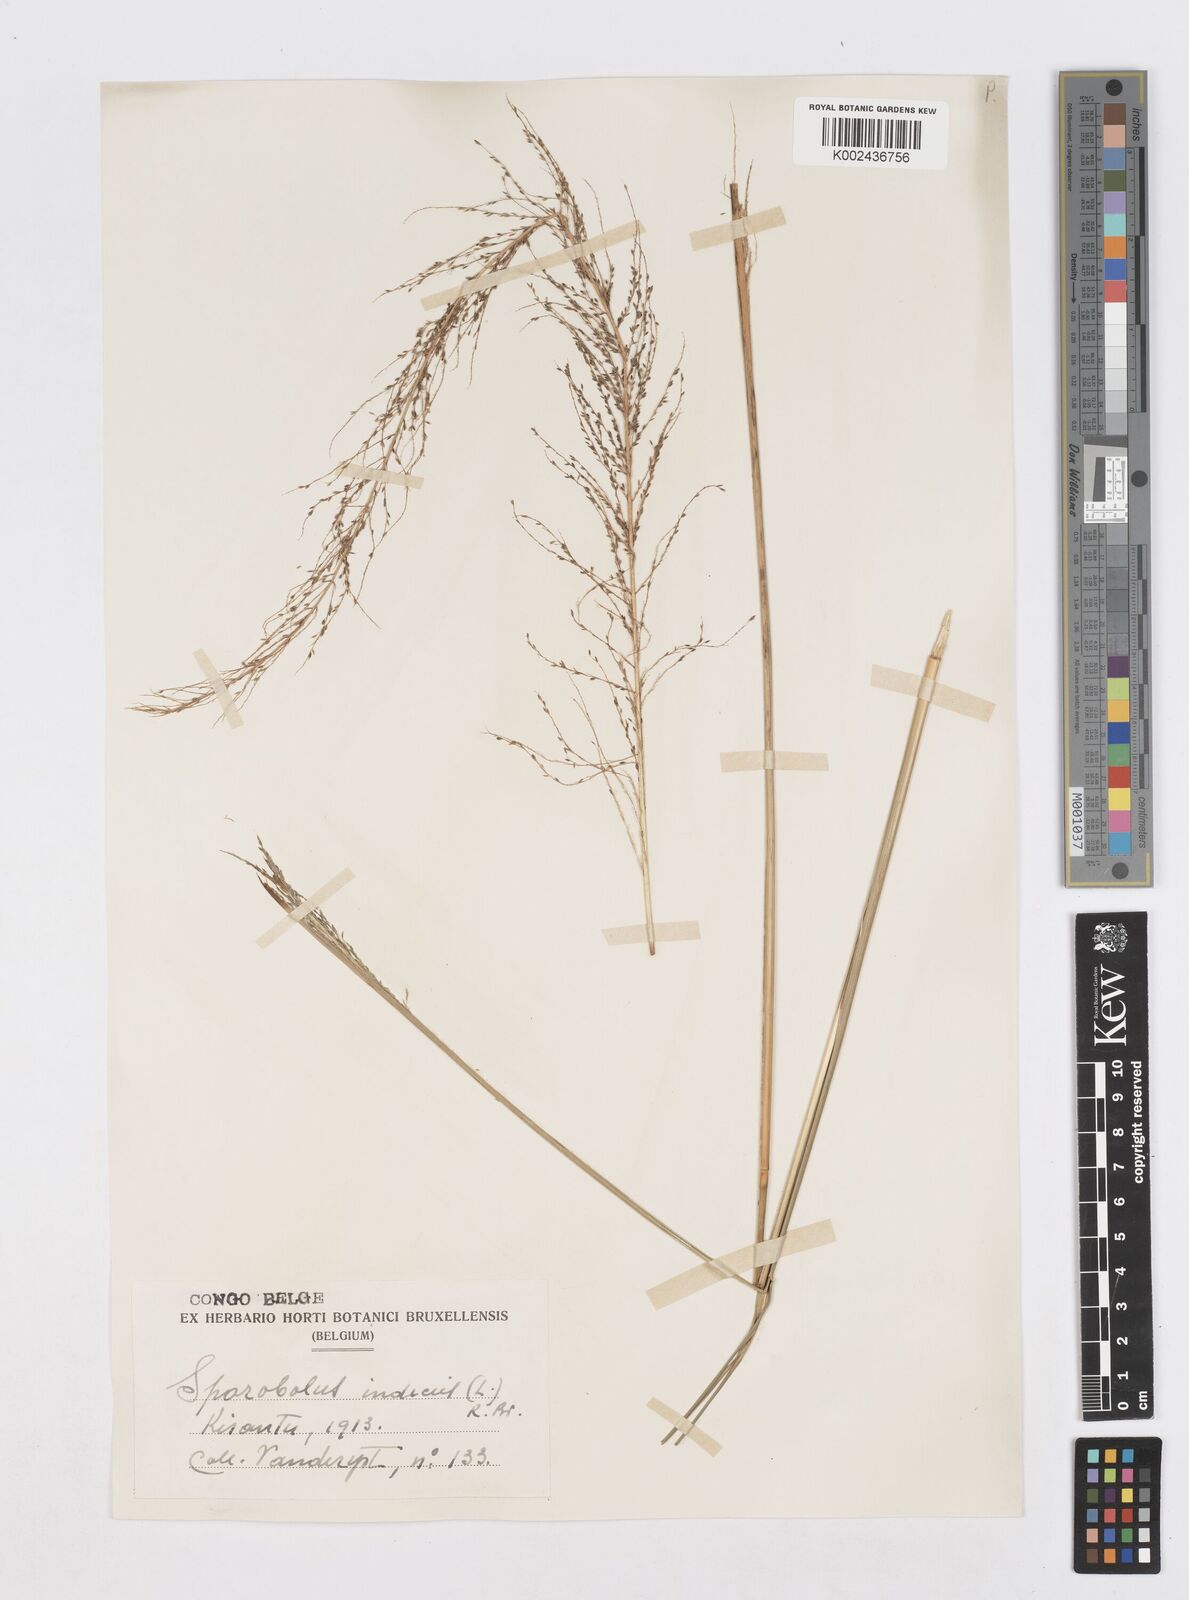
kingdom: Plantae
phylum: Tracheophyta
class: Liliopsida
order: Poales
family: Poaceae
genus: Sporobolus
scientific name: Sporobolus pyramidalis
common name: West indian dropseed
